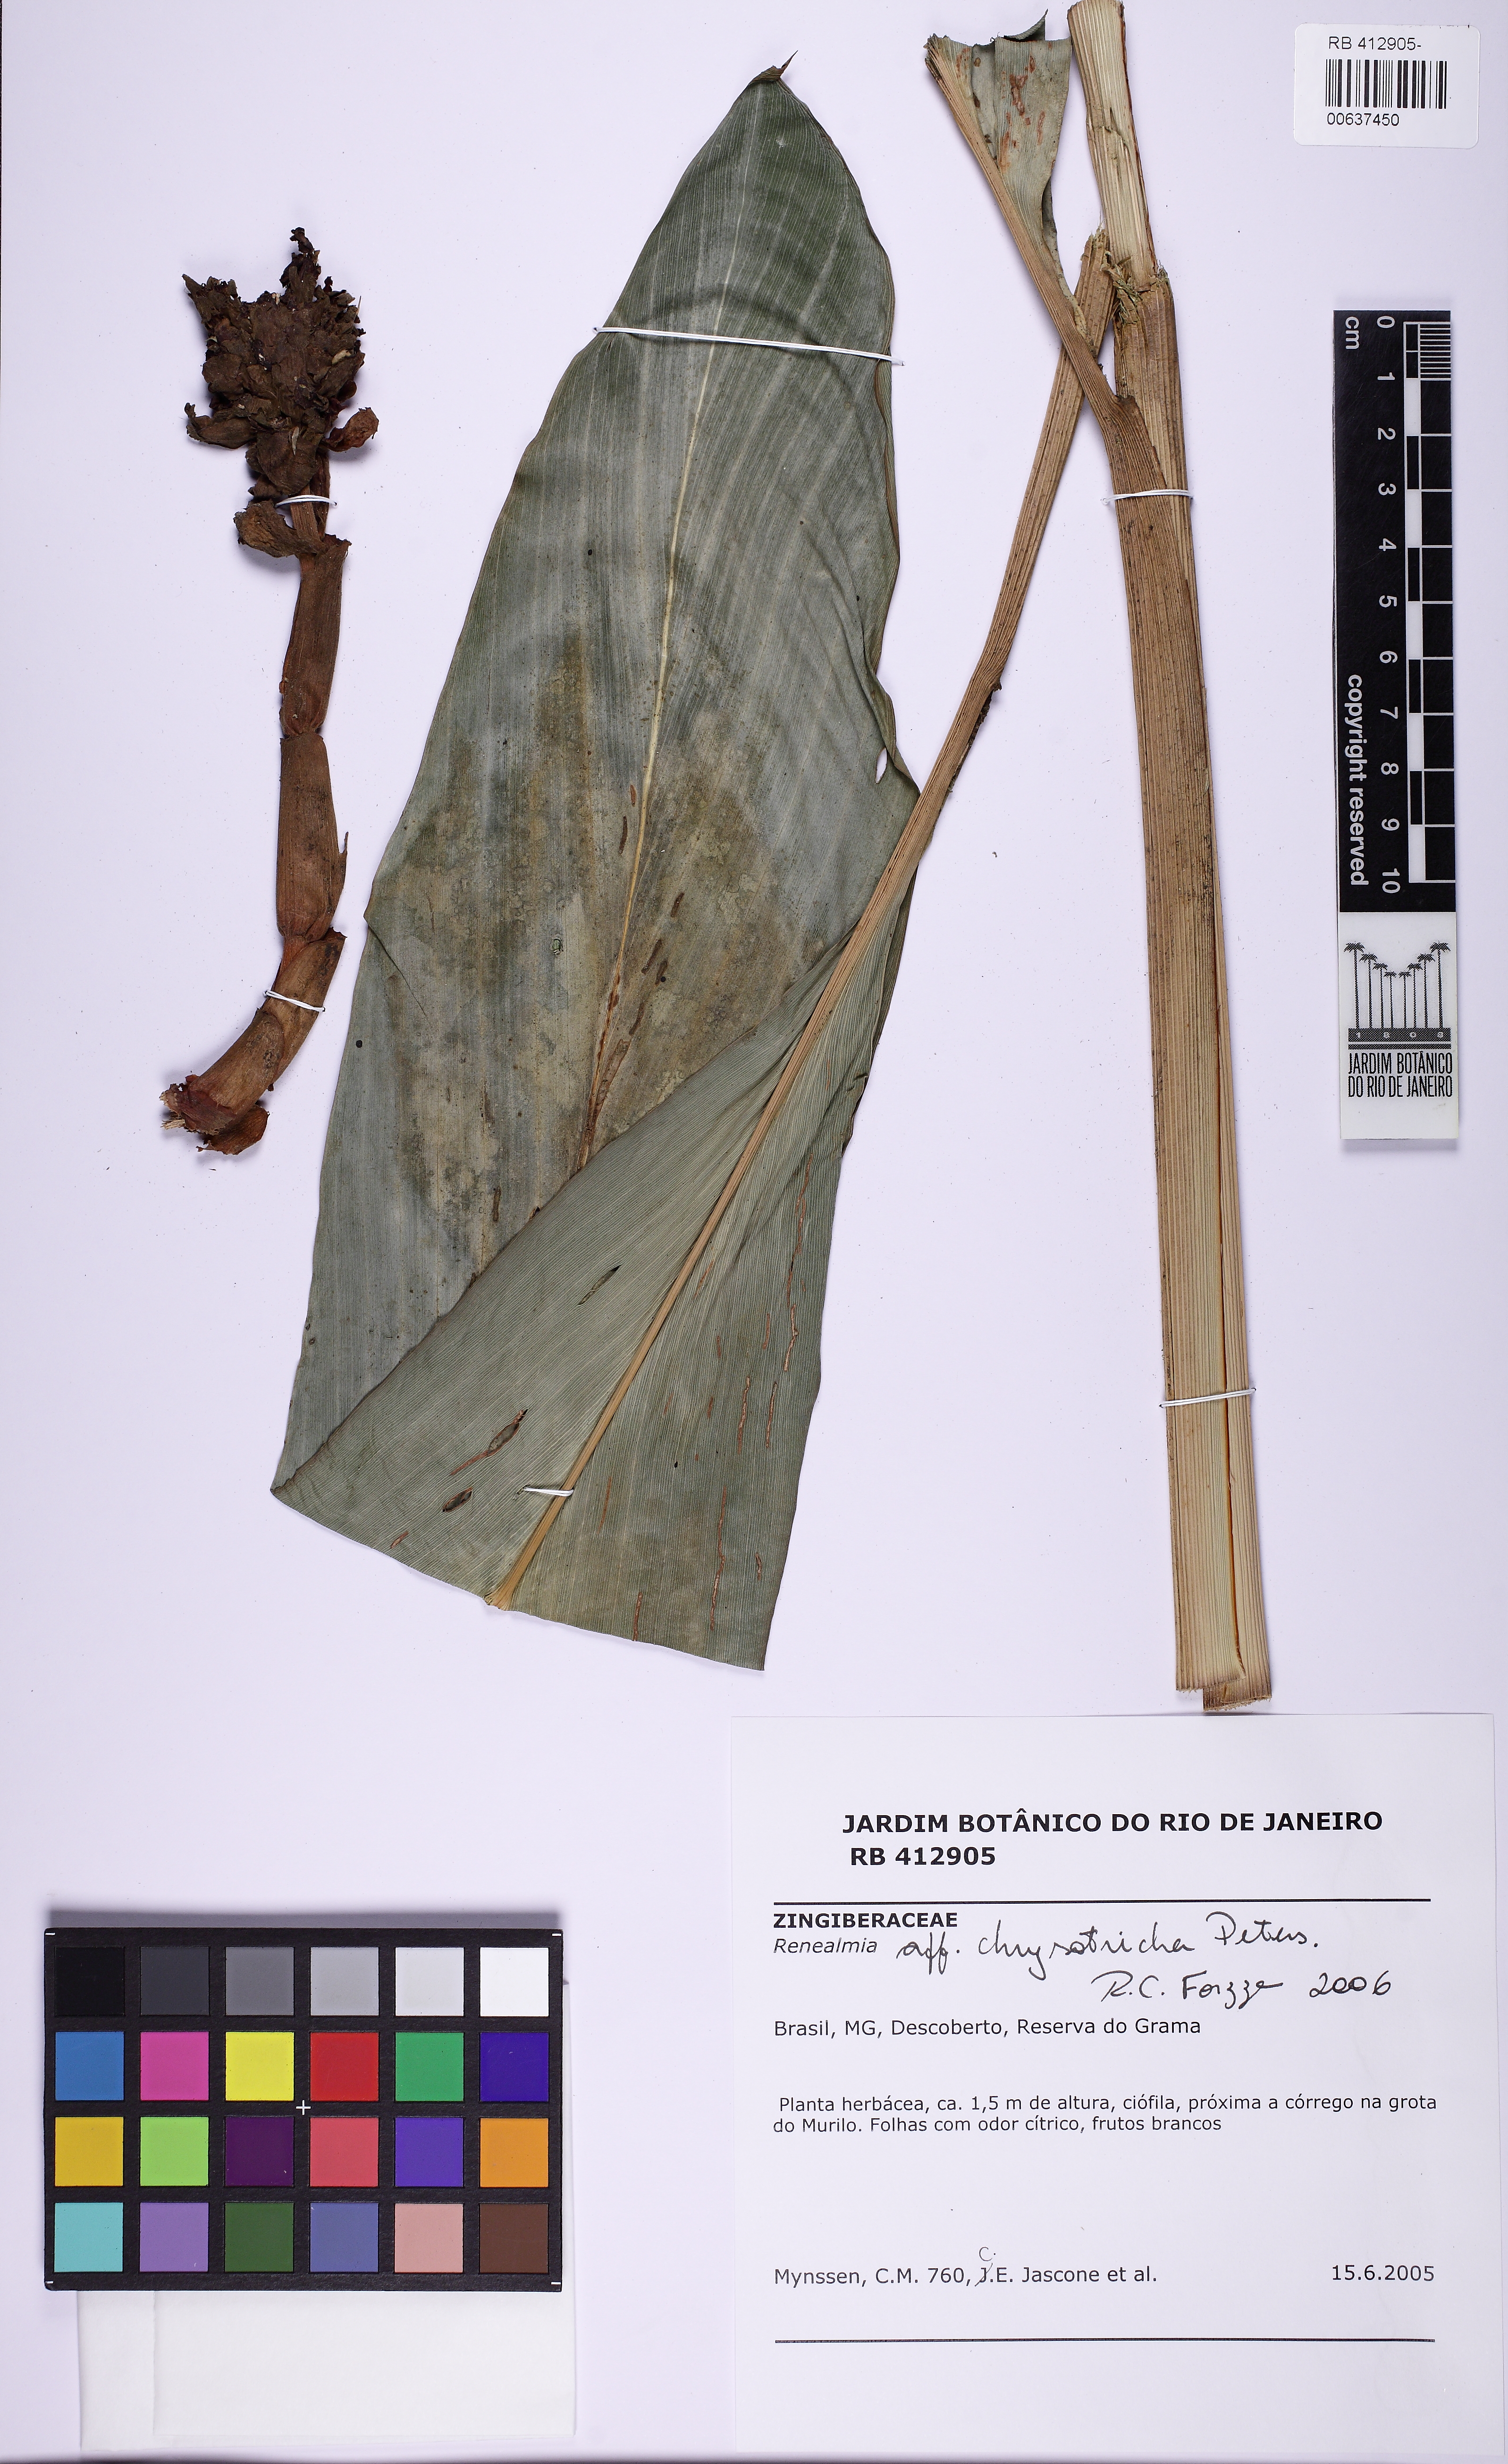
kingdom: Plantae
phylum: Tracheophyta
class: Liliopsida
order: Zingiberales
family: Zingiberaceae
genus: Renealmia
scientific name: Renealmia chrysotricha
